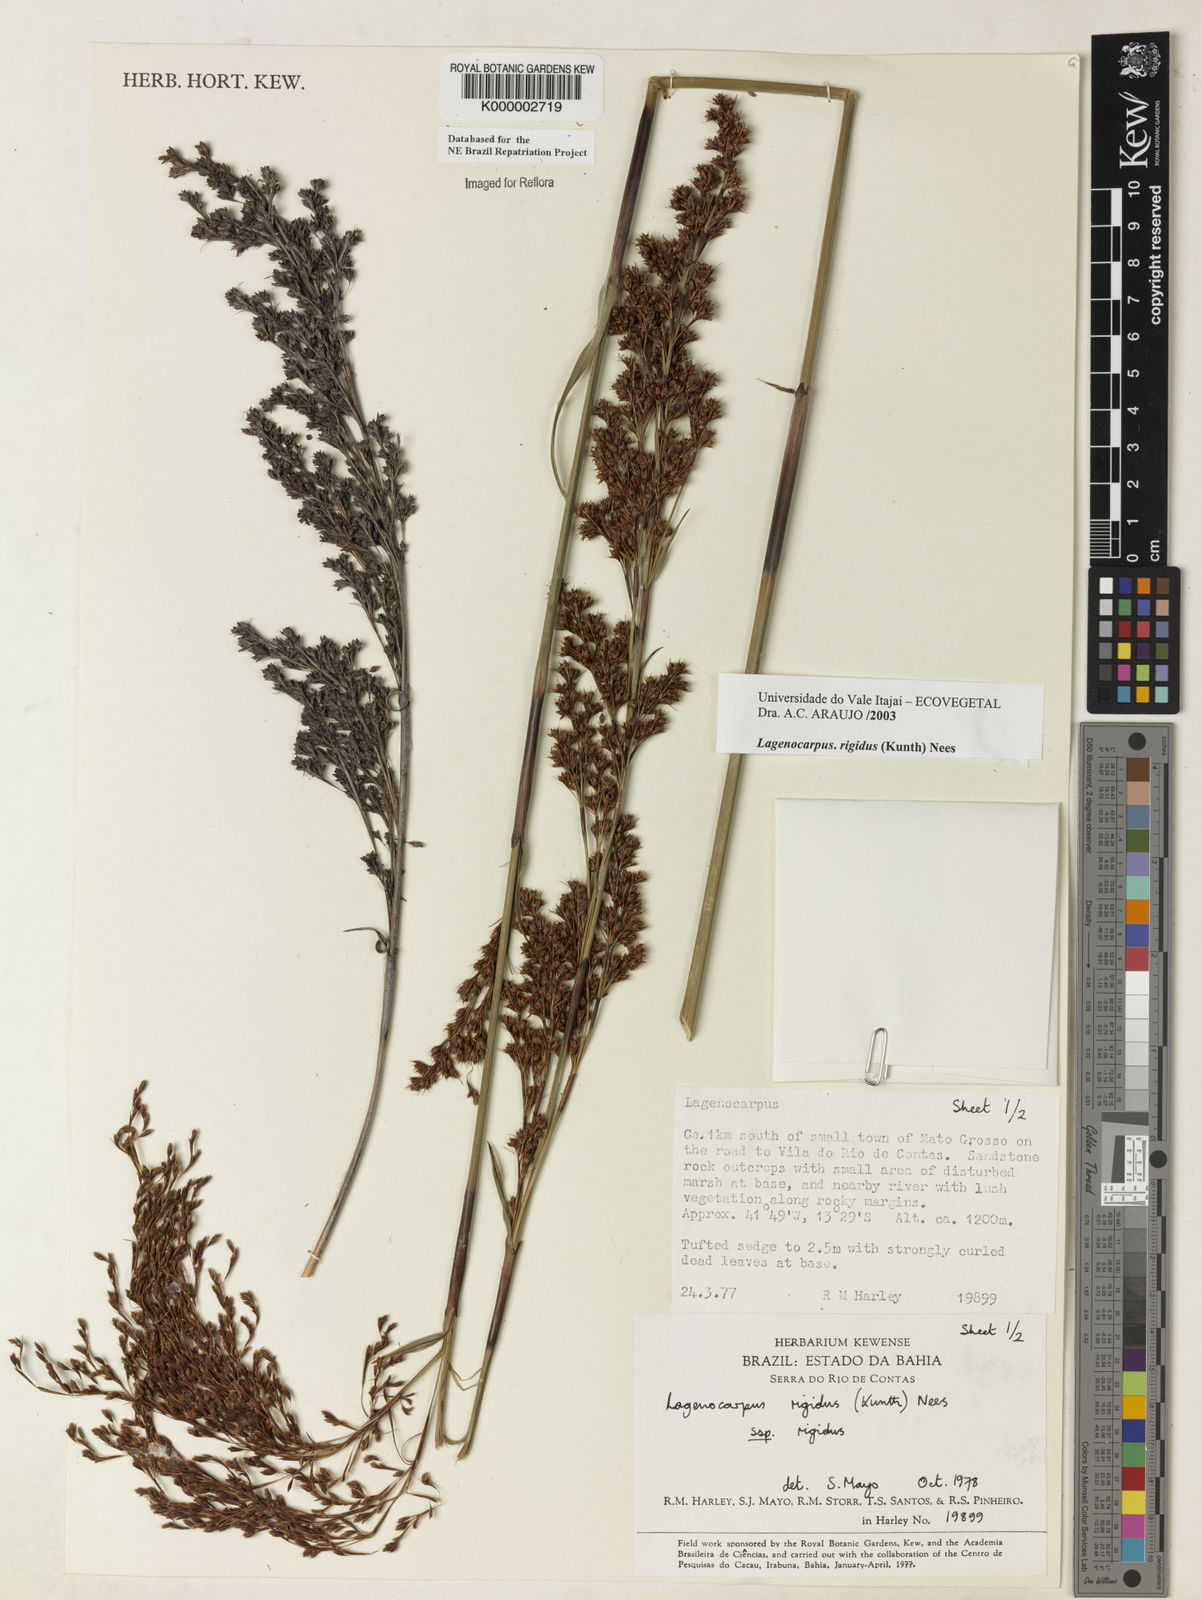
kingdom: Plantae
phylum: Tracheophyta
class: Liliopsida
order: Poales
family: Cyperaceae
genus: Lagenocarpus
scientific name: Lagenocarpus rigidus
